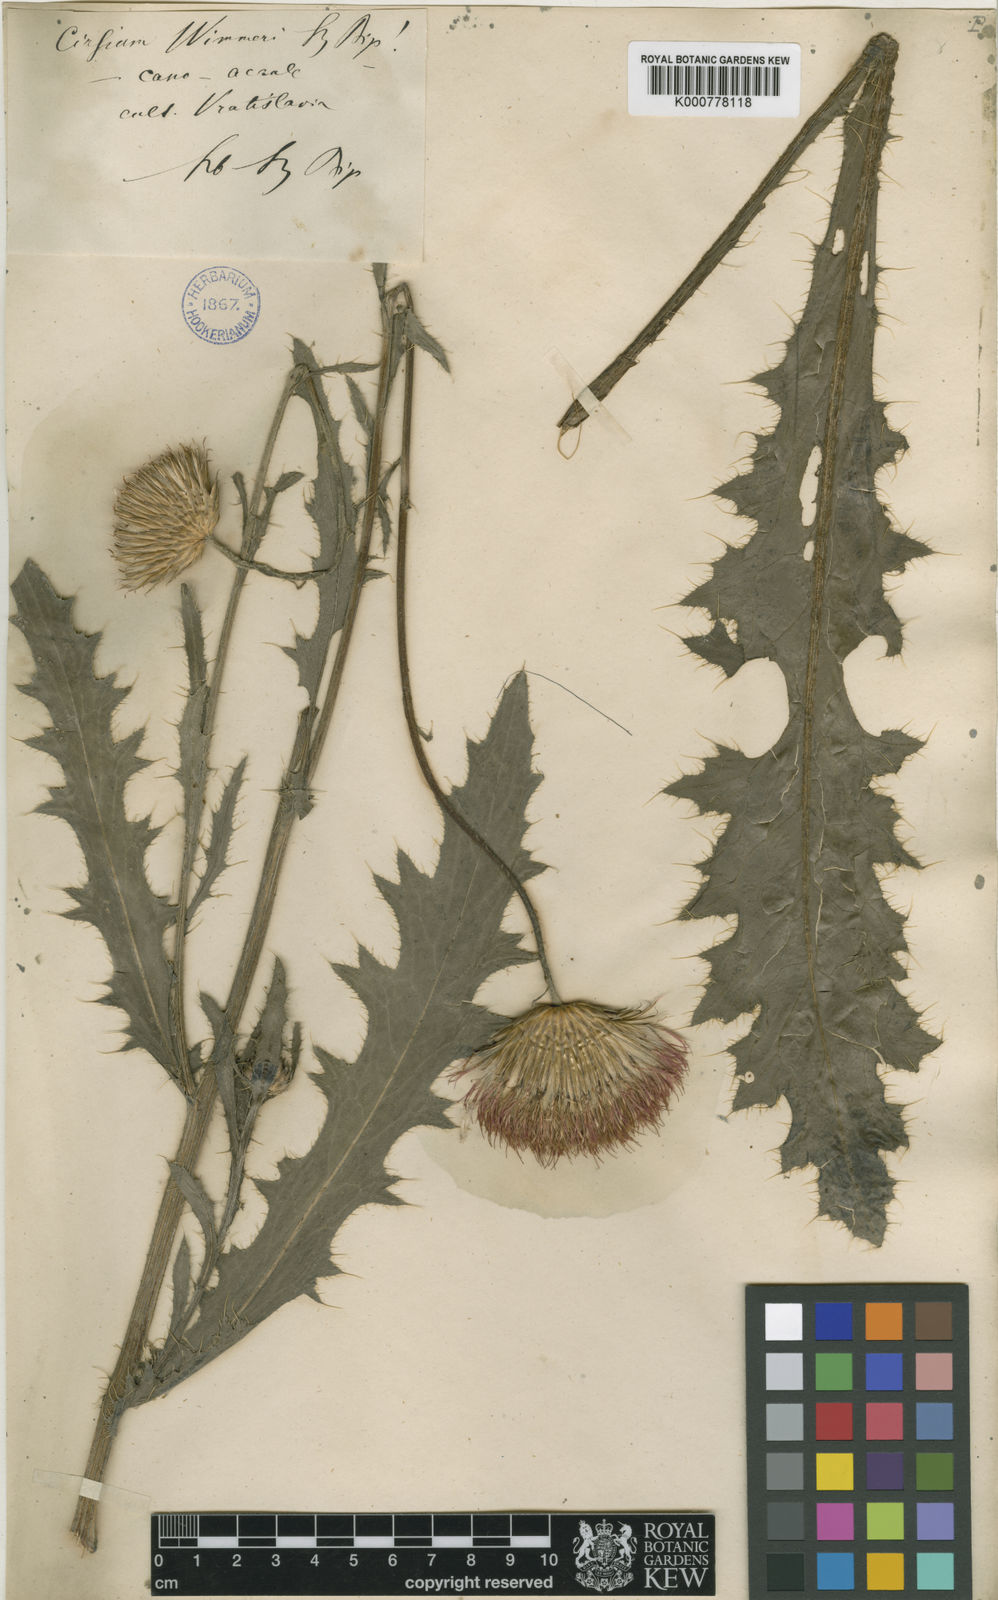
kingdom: Plantae
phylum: Tracheophyta
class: Magnoliopsida
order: Asterales
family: Asteraceae
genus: Cirsium
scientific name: Cirsium canum
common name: Queen anne's thistle
